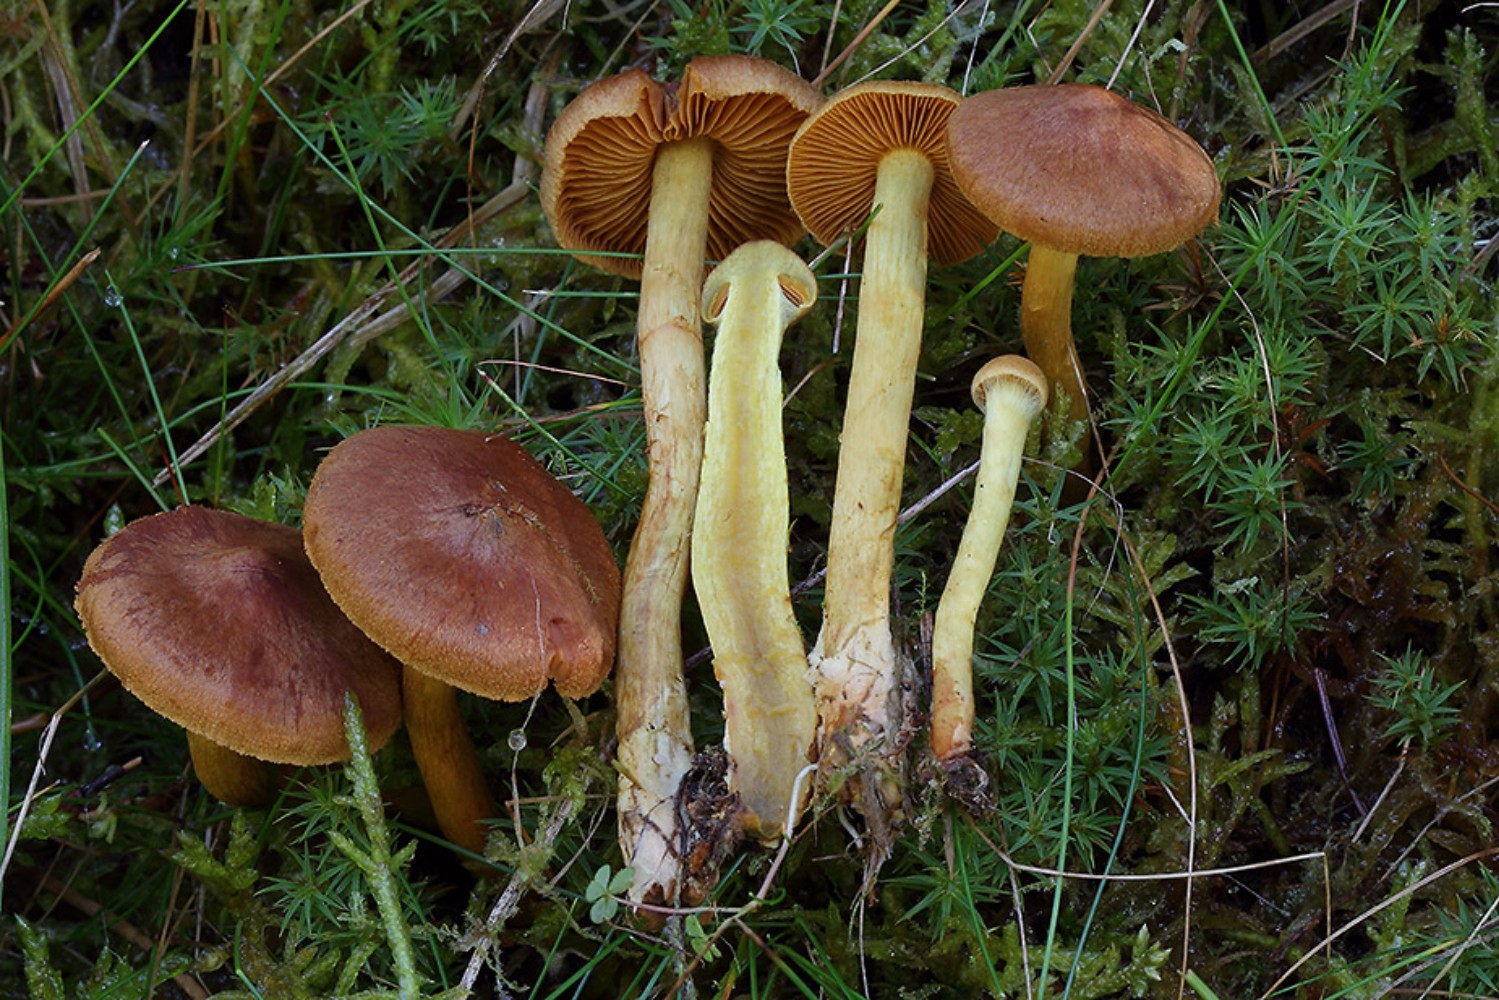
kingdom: Fungi
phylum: Basidiomycota
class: Agaricomycetes
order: Agaricales
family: Cortinariaceae
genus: Cortinarius
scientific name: Cortinarius croceus
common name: Saffron webcap
